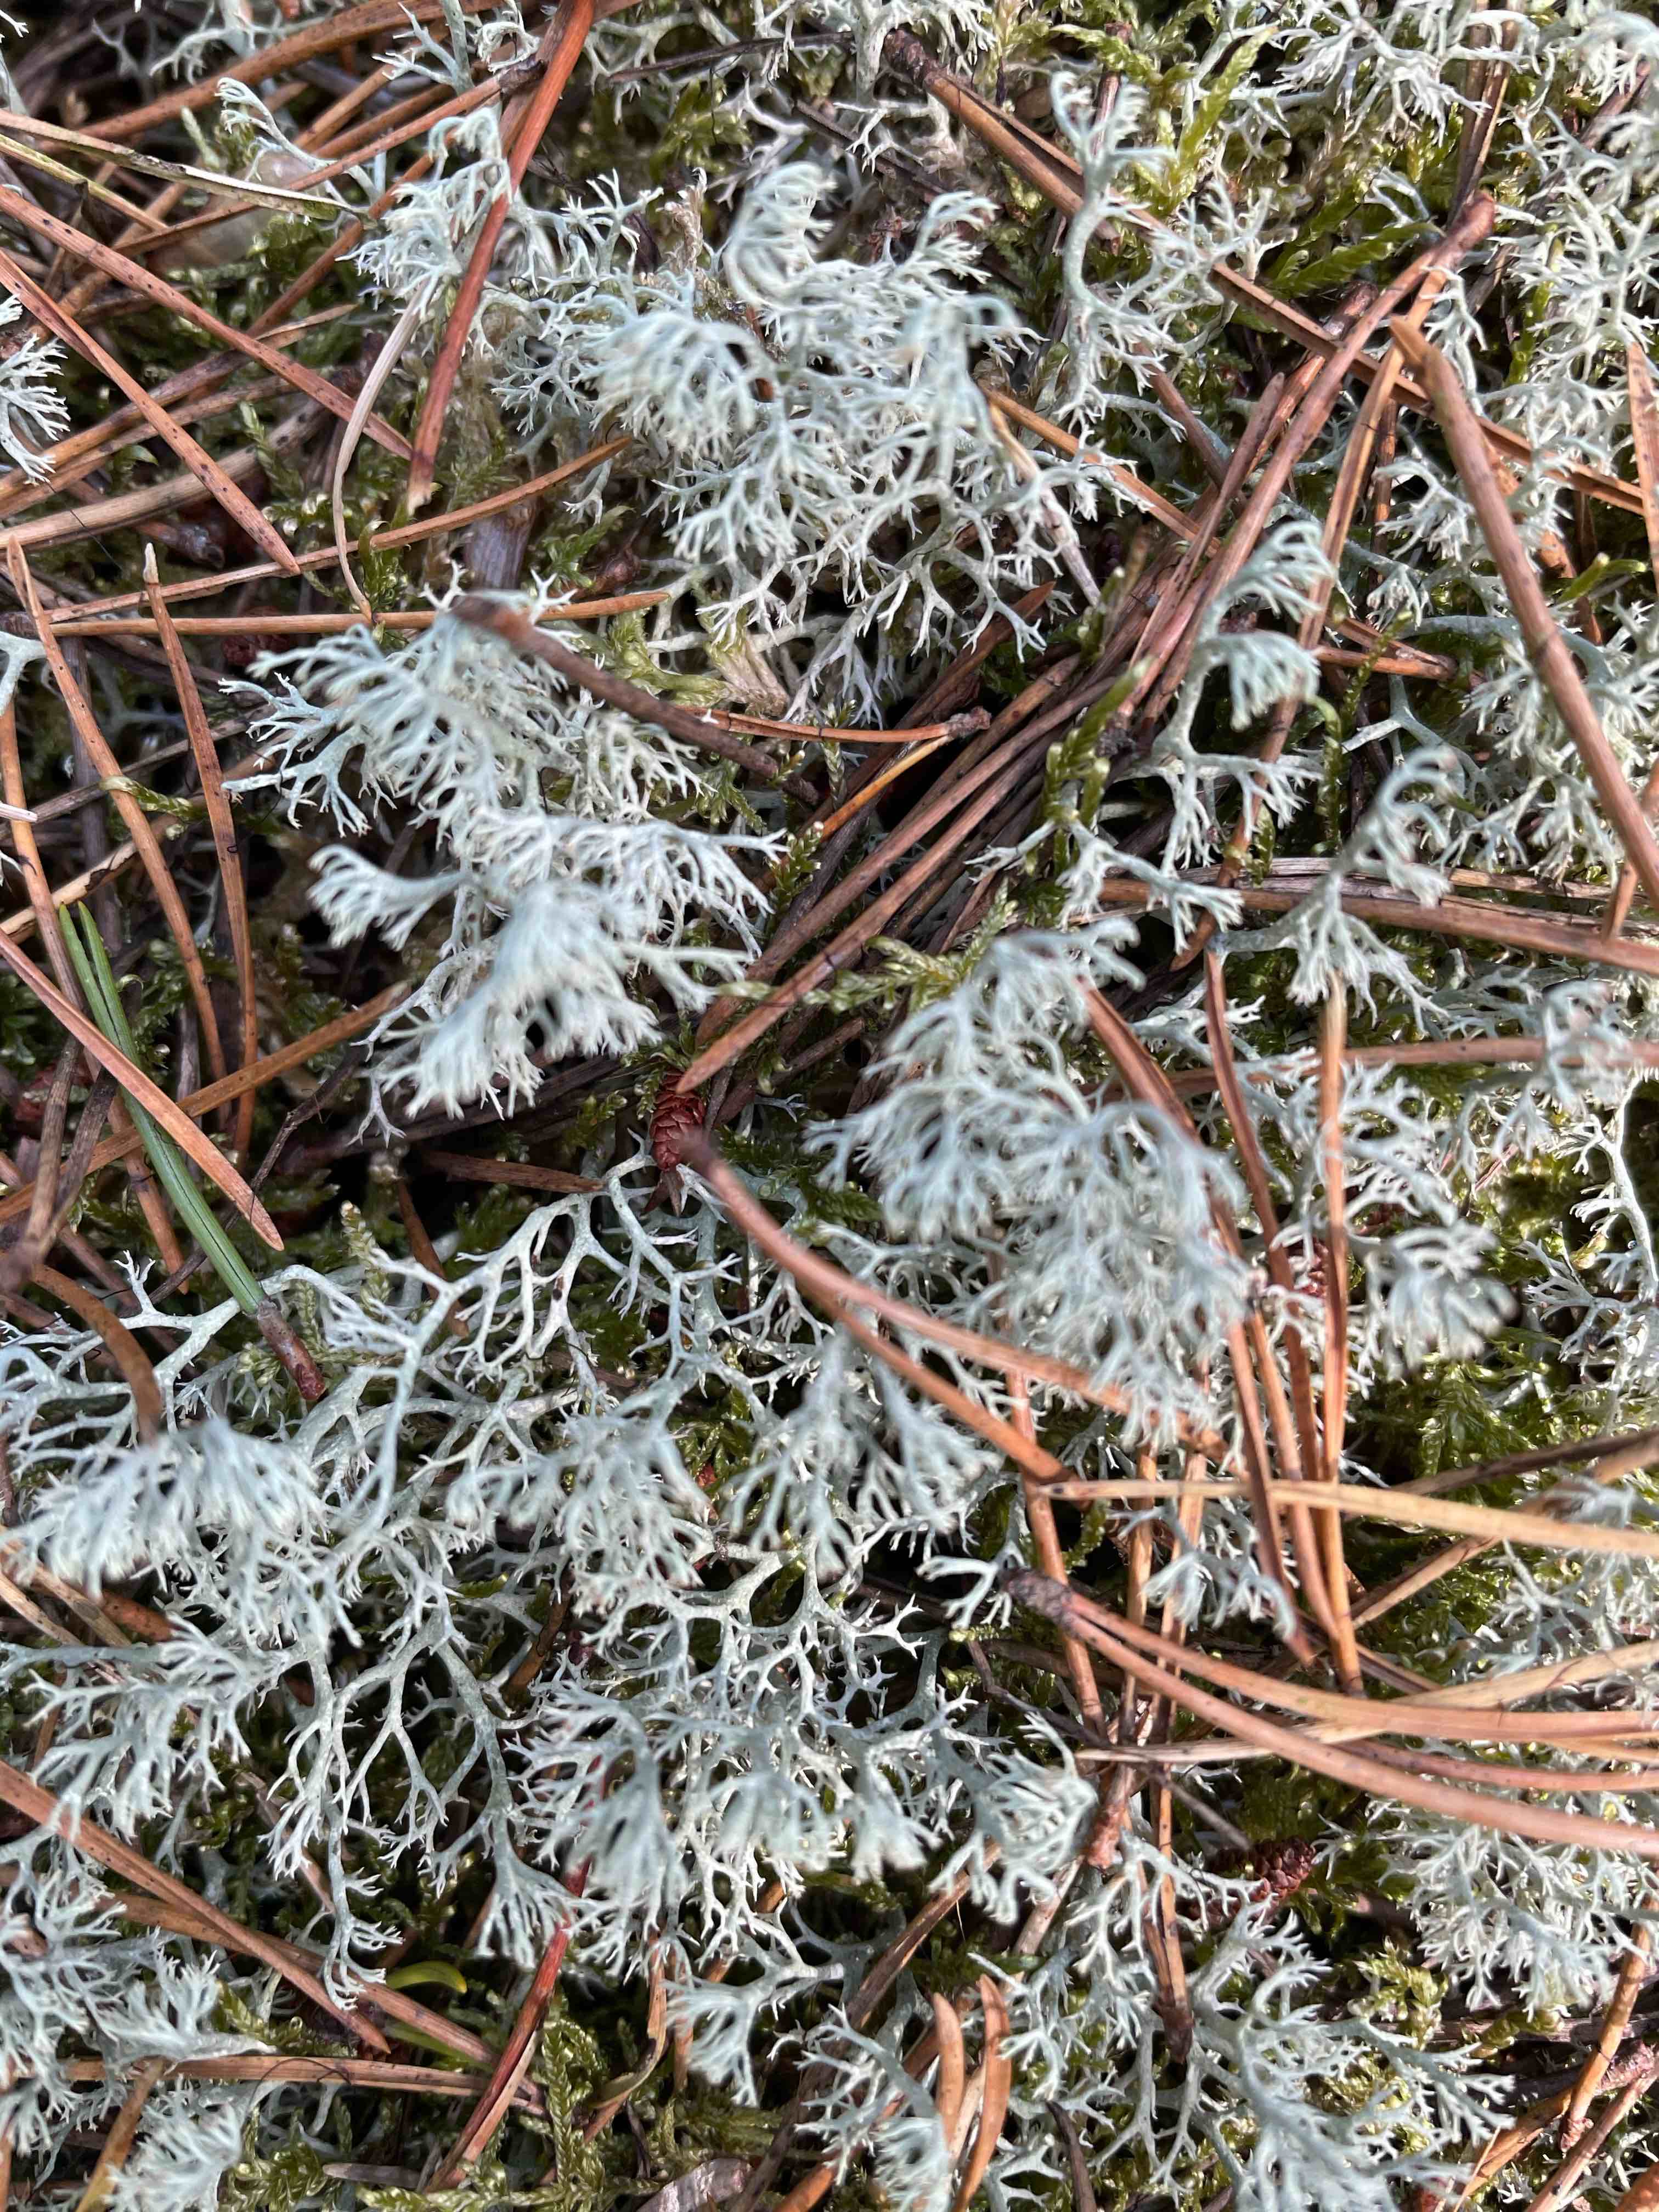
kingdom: Fungi
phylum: Ascomycota
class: Lecanoromycetes
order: Lecanorales
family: Cladoniaceae
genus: Cladonia
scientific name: Cladonia ciliata
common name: spinkel rensdyrlav
